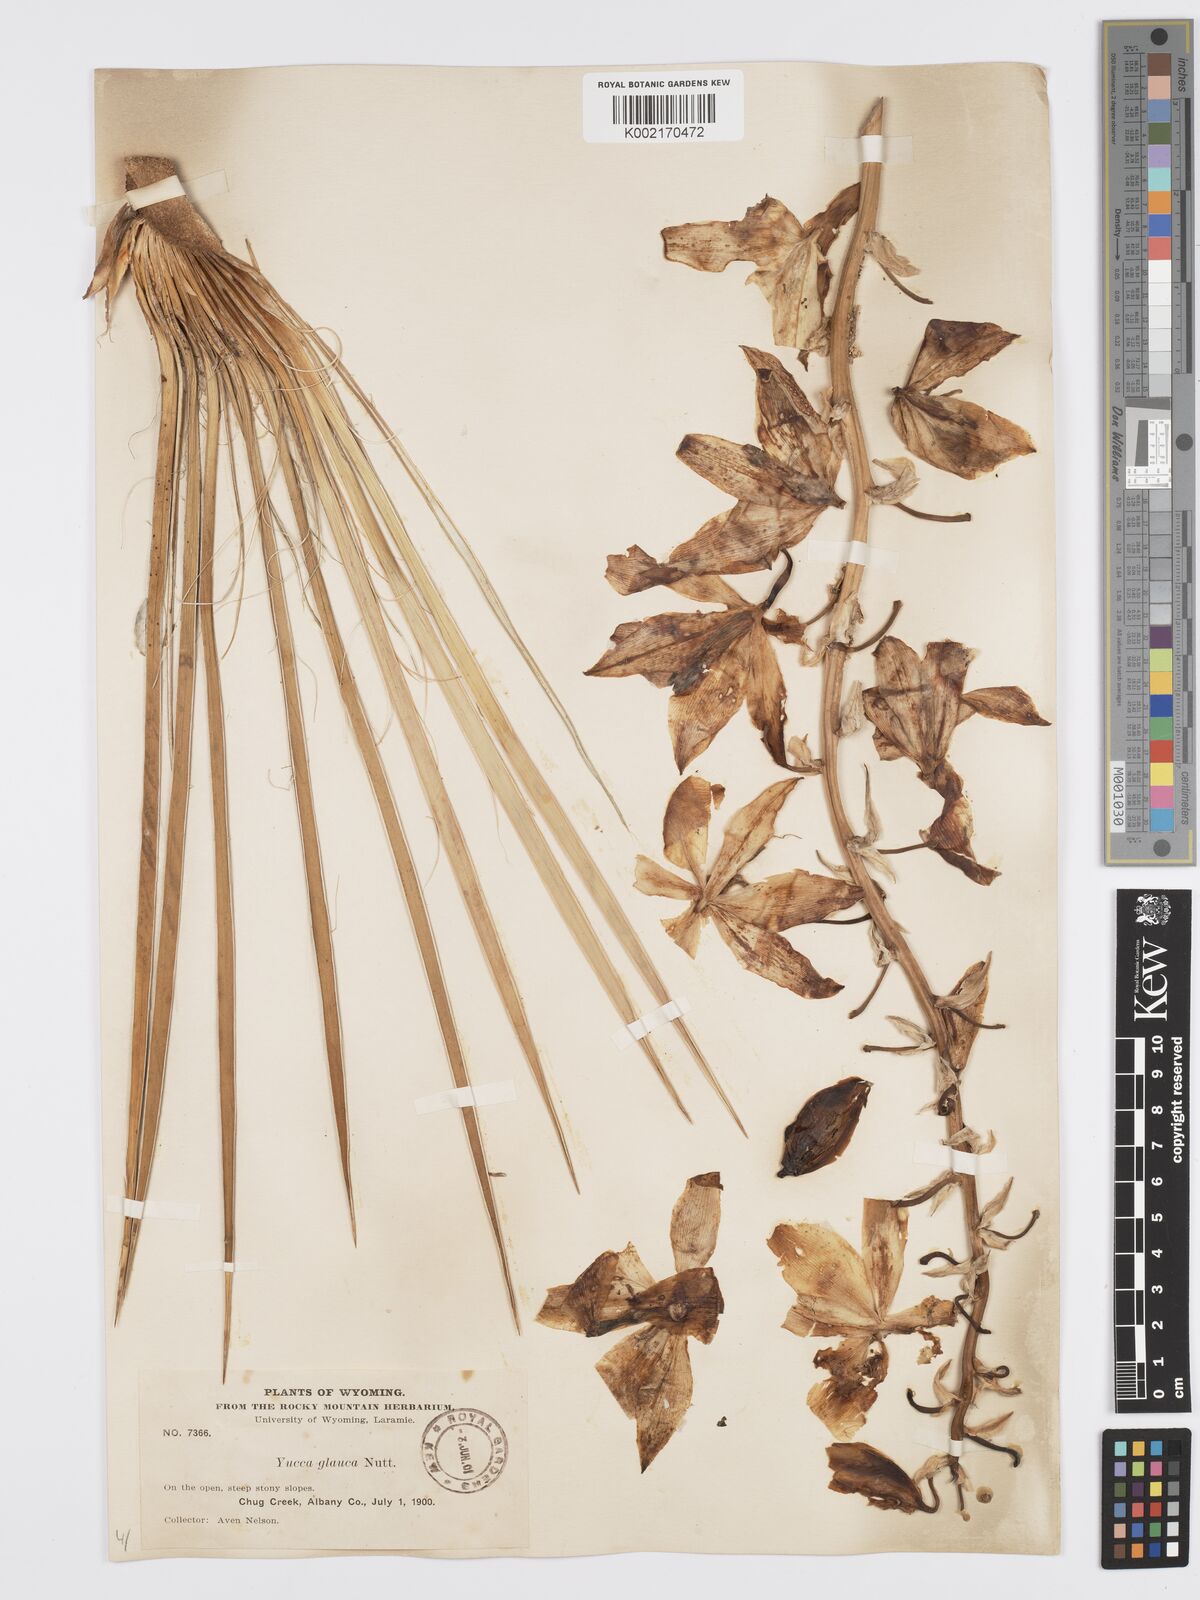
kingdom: Plantae
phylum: Tracheophyta
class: Liliopsida
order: Asparagales
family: Asparagaceae
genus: Yucca
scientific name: Yucca glauca
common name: Great plains yucca
